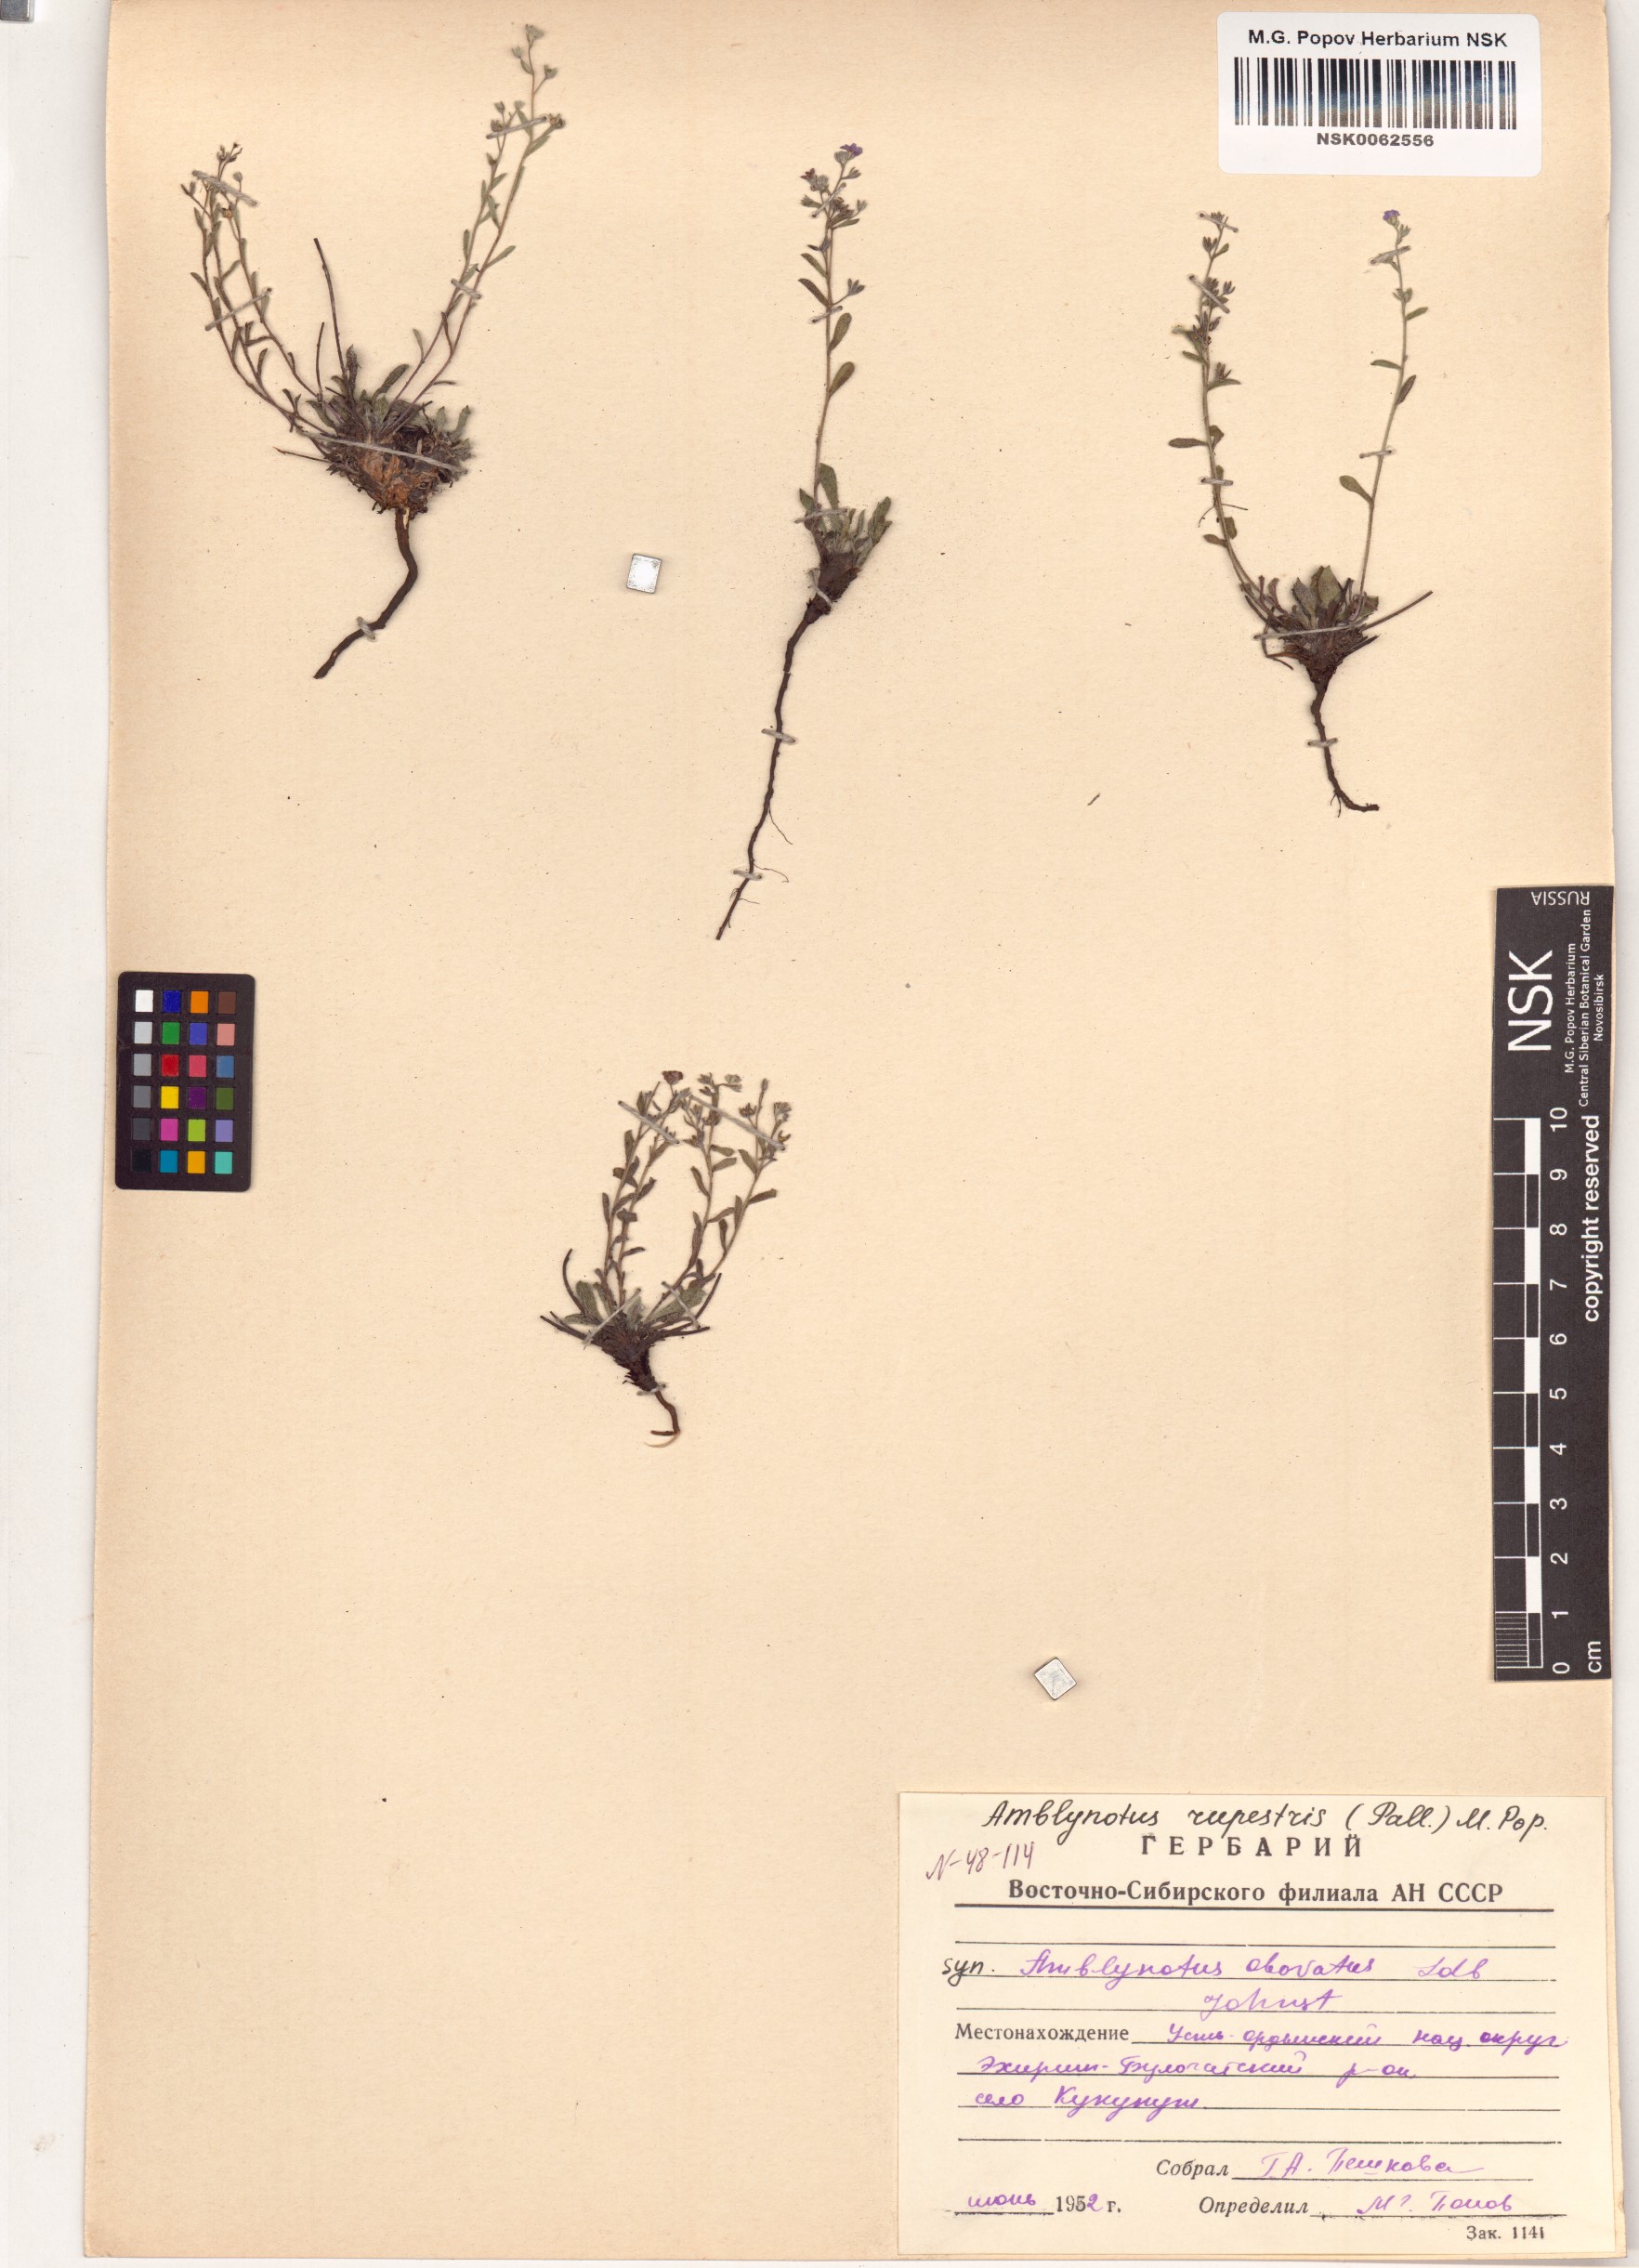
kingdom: Plantae
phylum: Tracheophyta
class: Magnoliopsida
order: Boraginales
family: Boraginaceae
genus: Eritrichium
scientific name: Eritrichium rupestre
